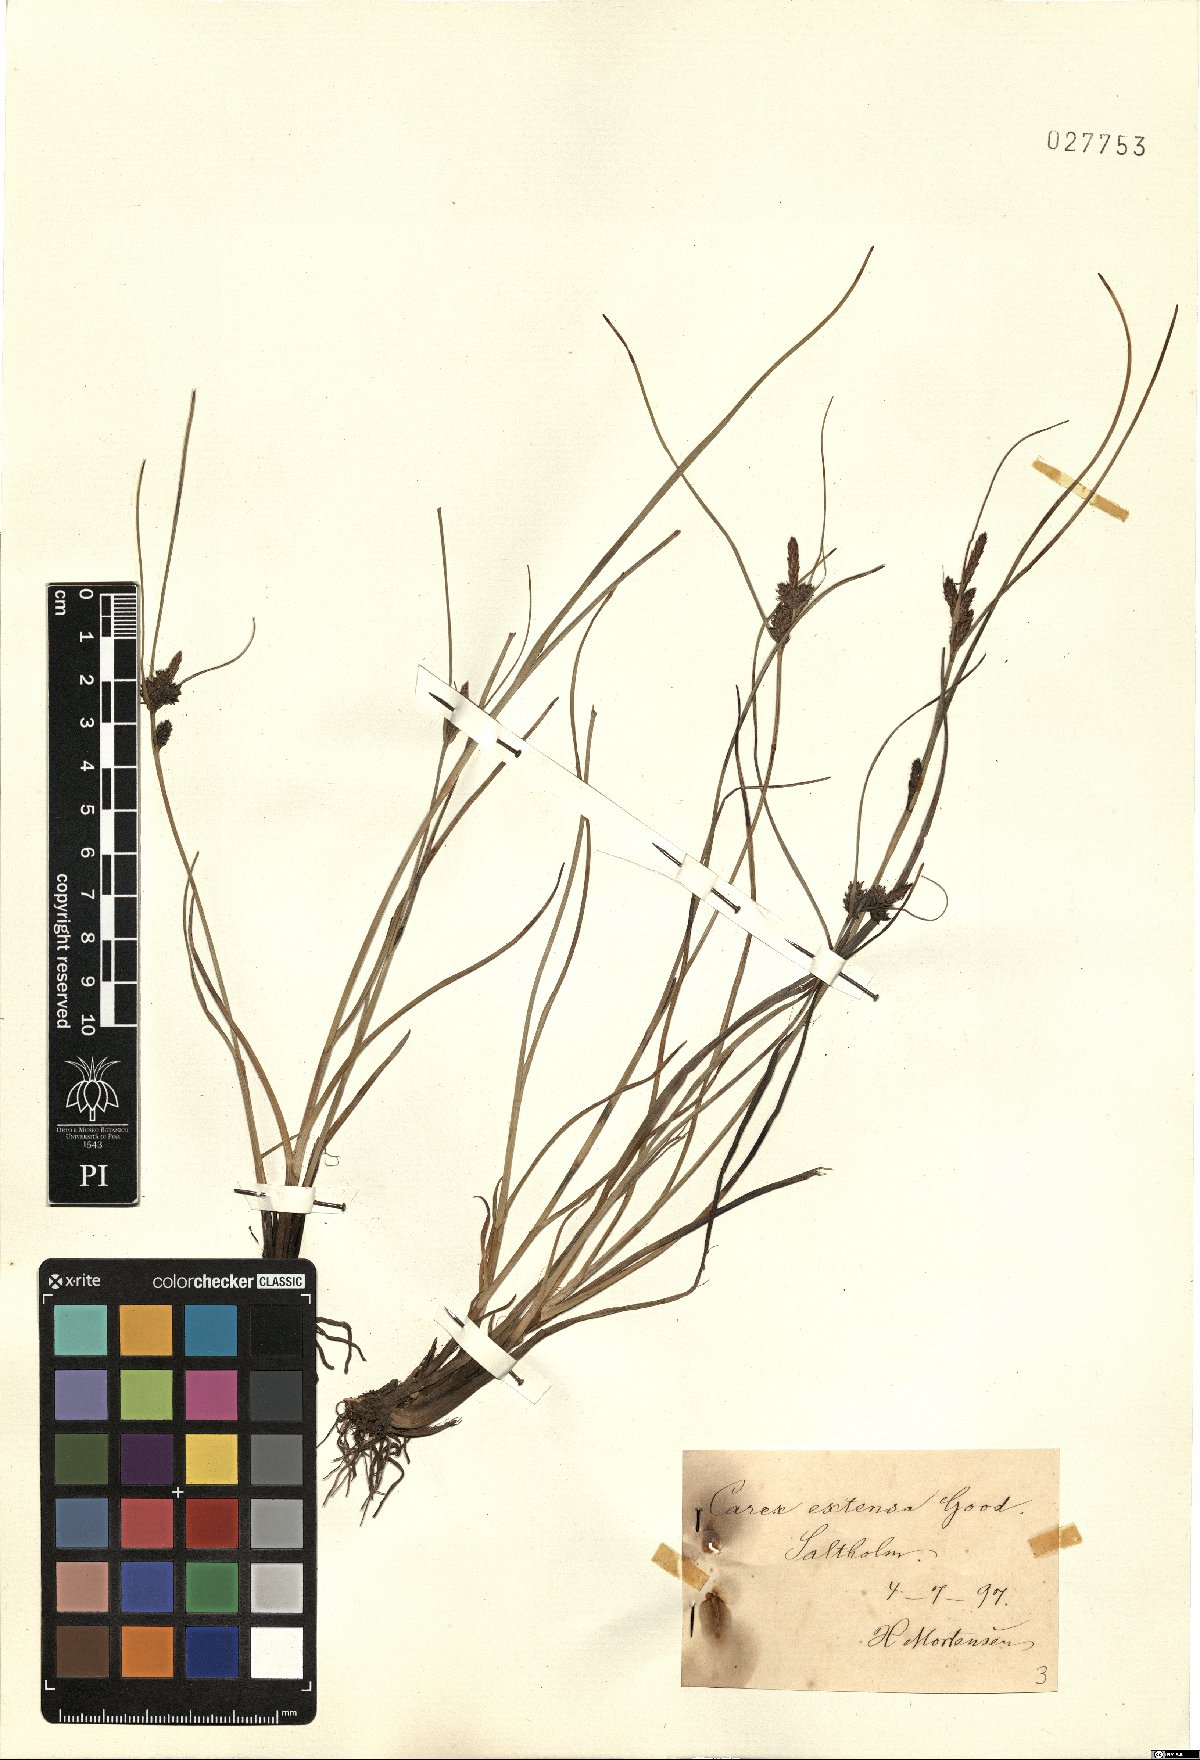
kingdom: Plantae
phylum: Tracheophyta
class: Liliopsida
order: Poales
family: Cyperaceae
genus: Carex
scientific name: Carex extensa
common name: Long-bracted sedge
